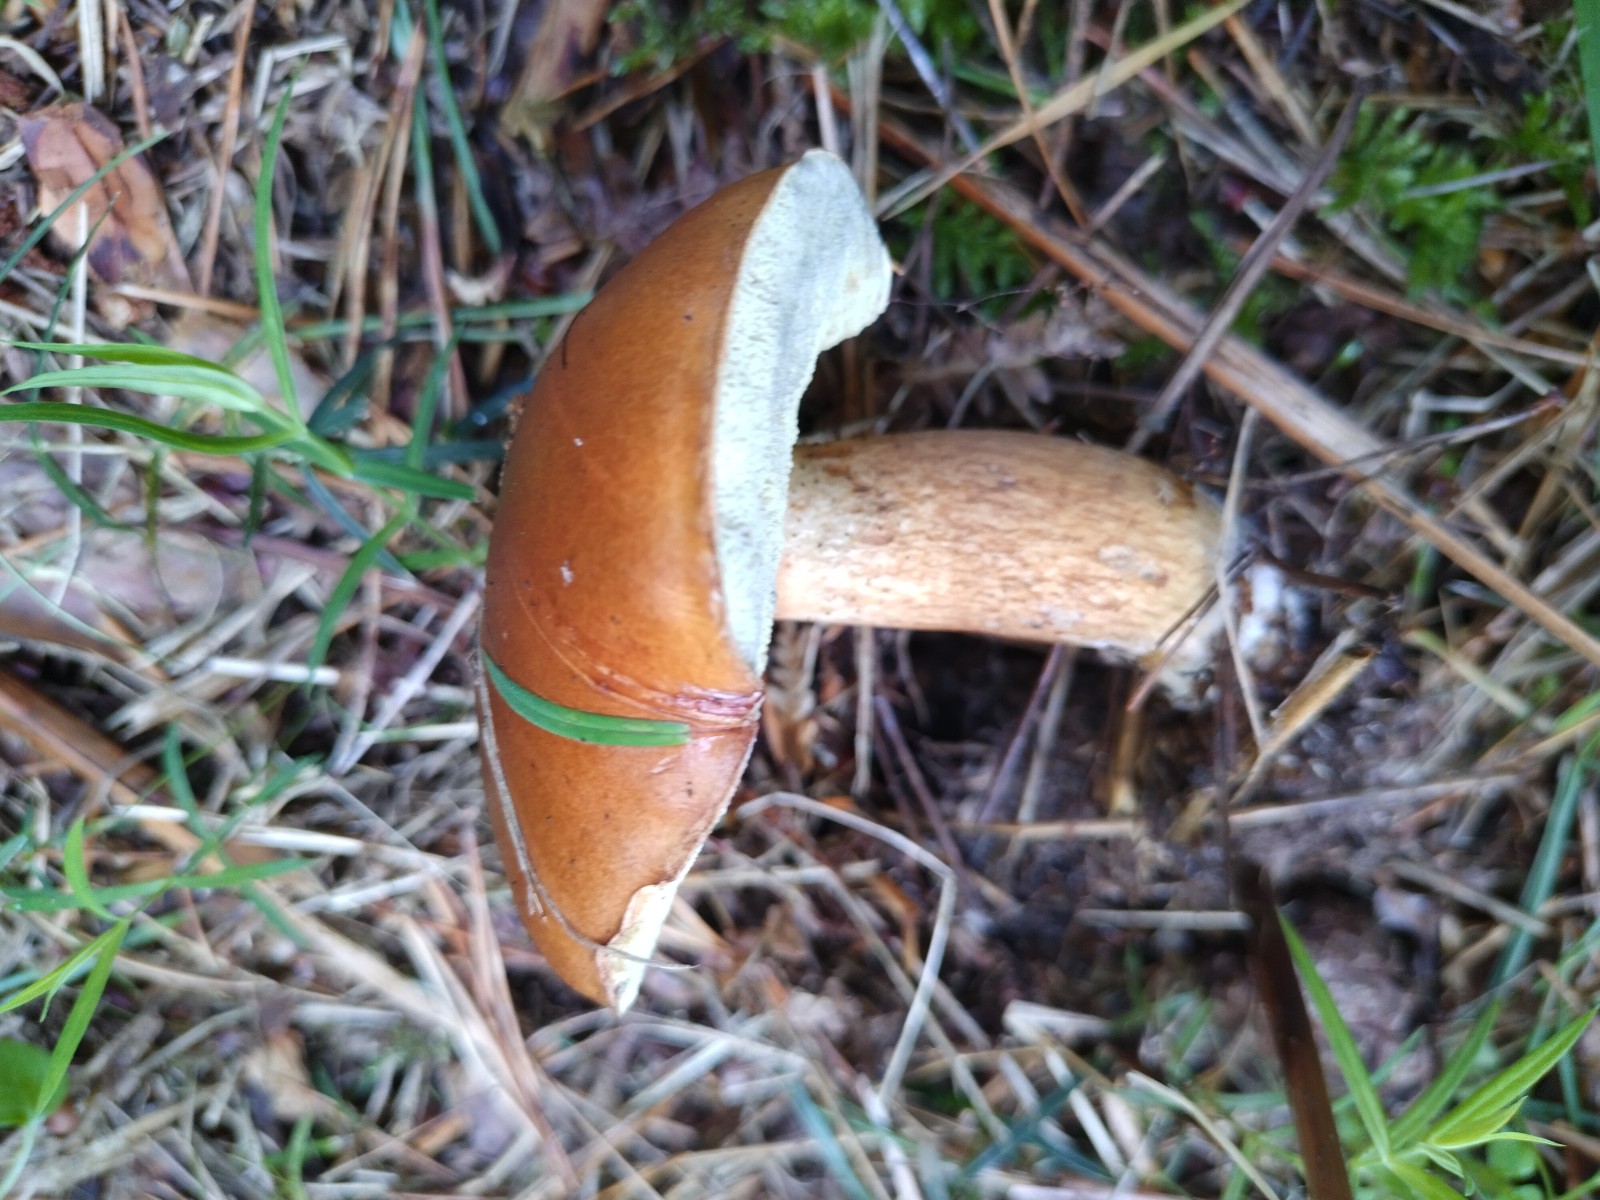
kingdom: Fungi
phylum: Basidiomycota
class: Agaricomycetes
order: Boletales
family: Boletaceae
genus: Imleria
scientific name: Imleria badia
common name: brunstokket rørhat
